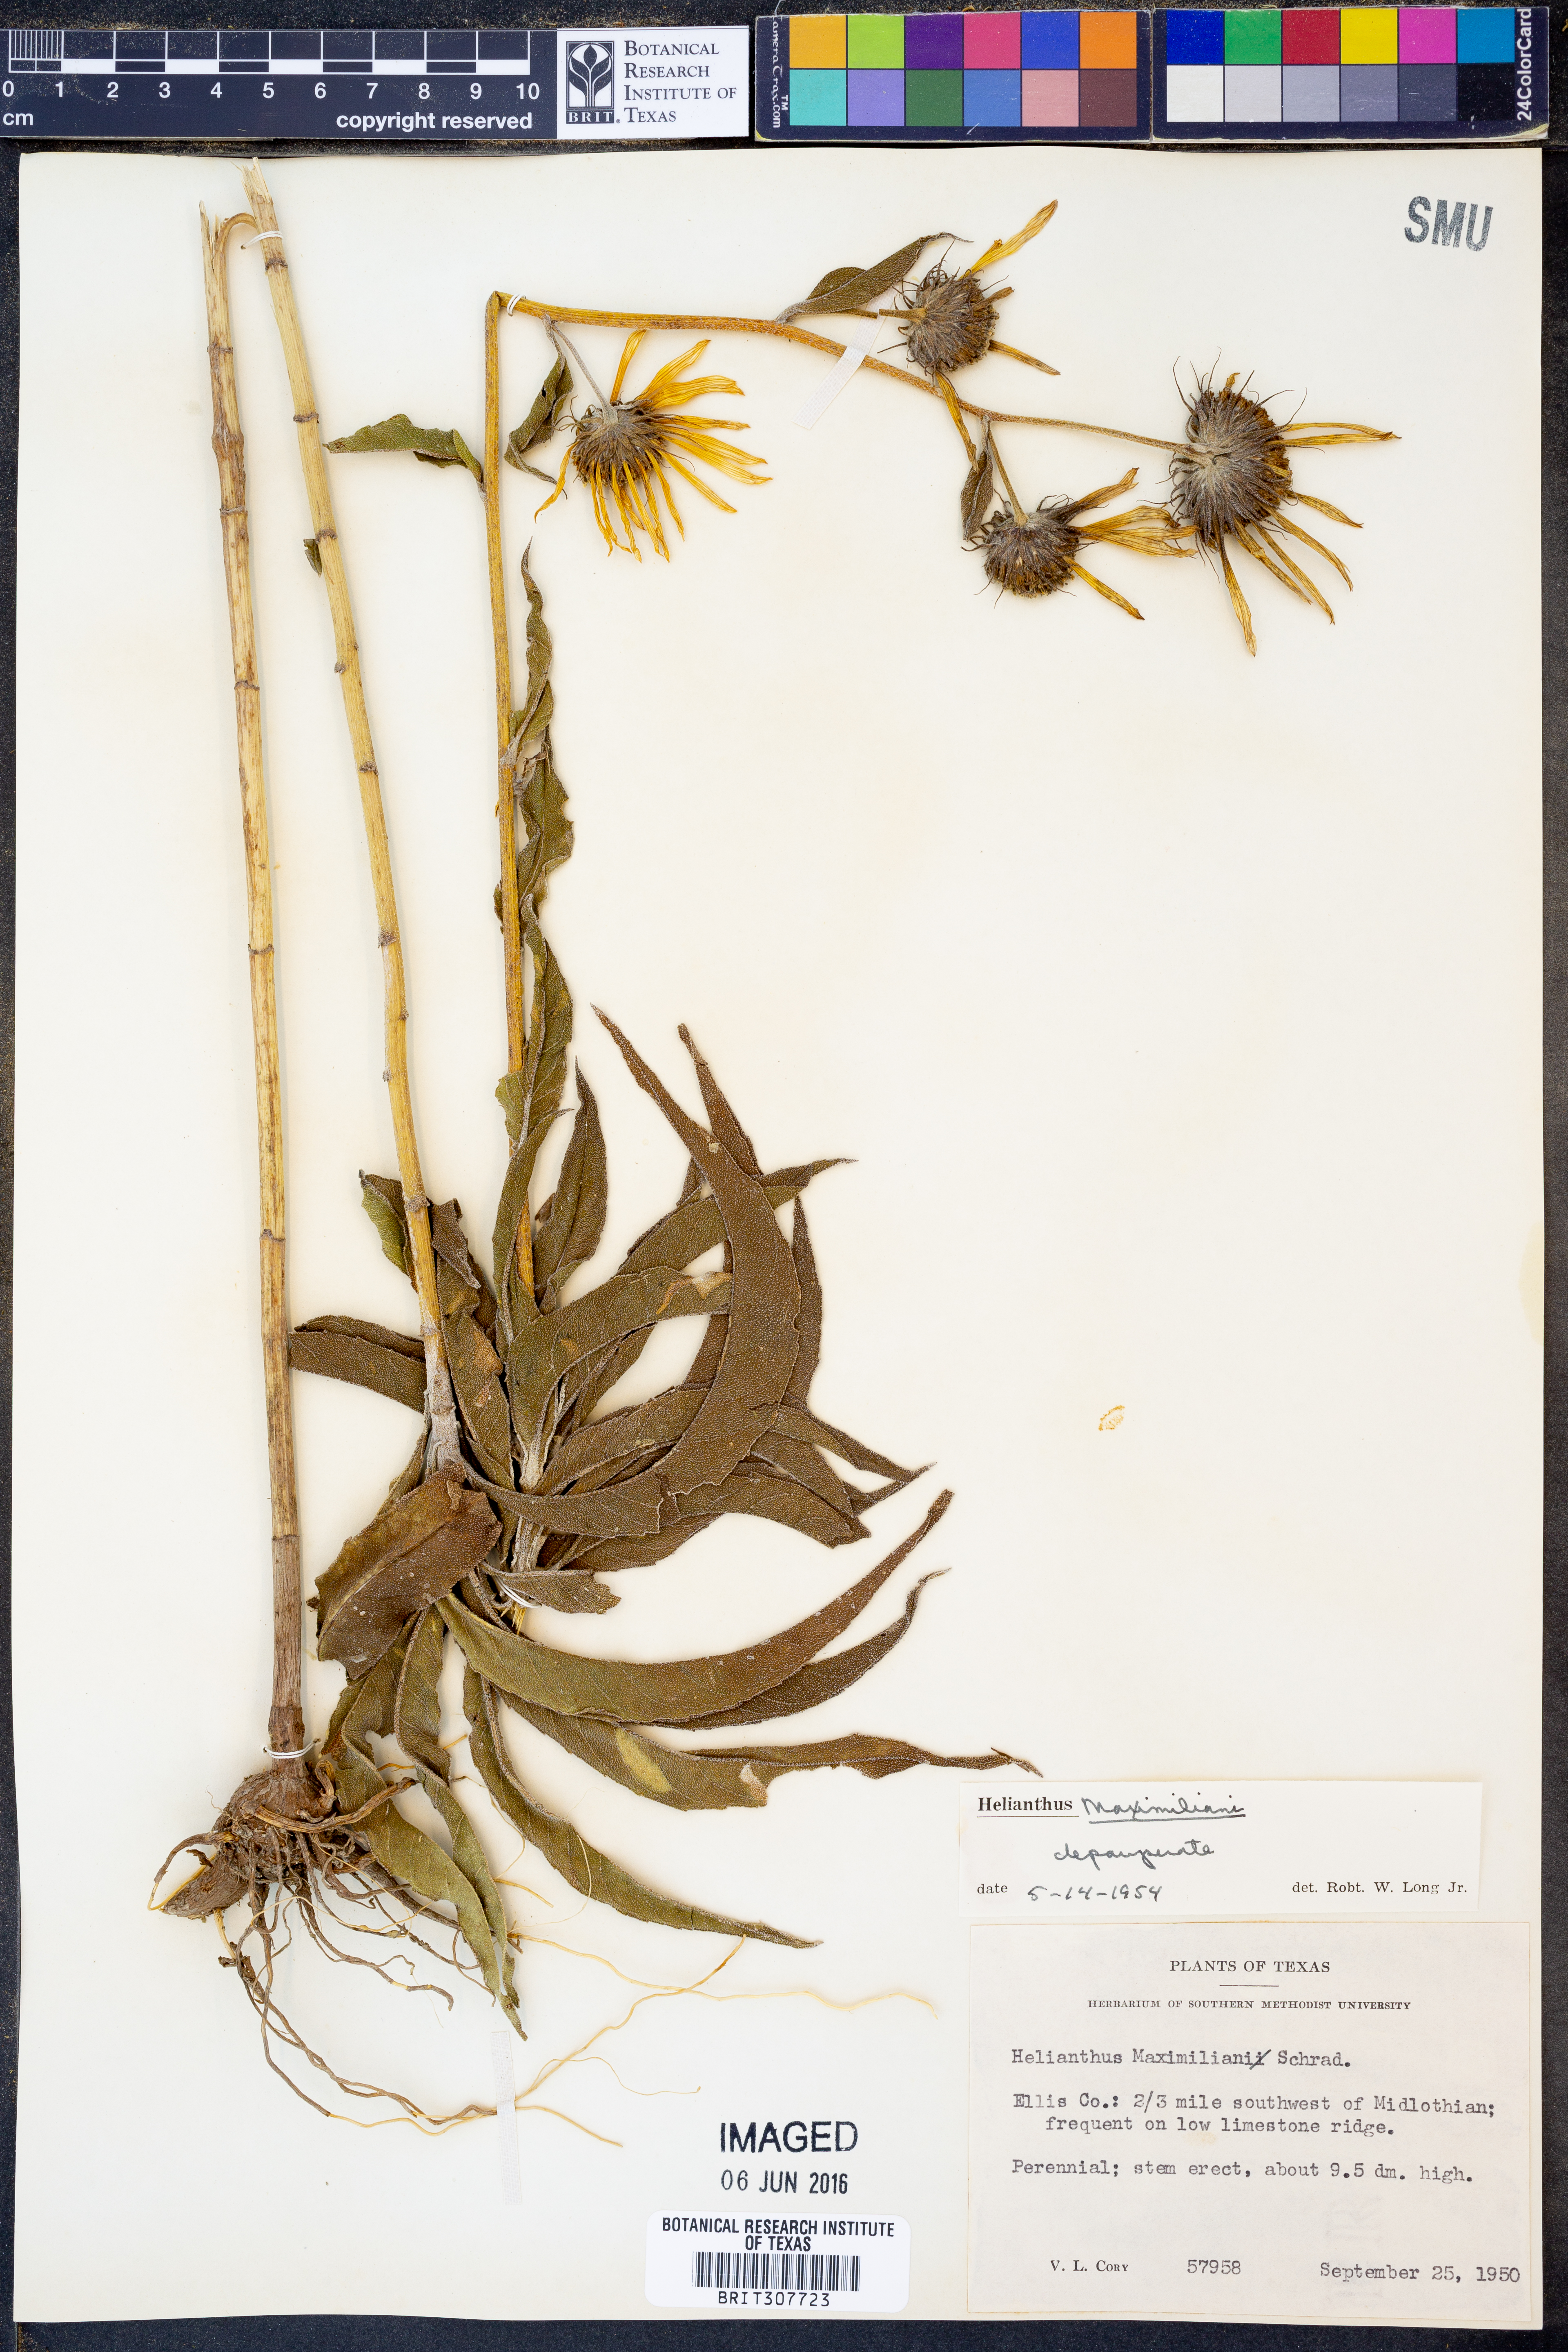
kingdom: Plantae
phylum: Tracheophyta
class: Magnoliopsida
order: Asterales
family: Asteraceae
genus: Helianthus
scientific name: Helianthus maximiliani
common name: Maximilian's sunflower
